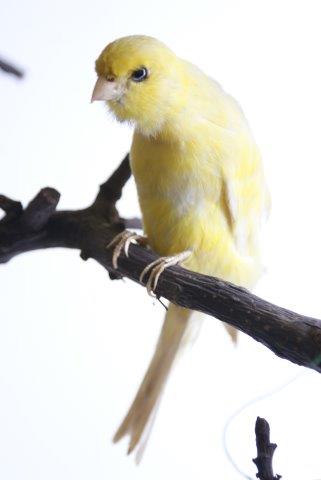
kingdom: Animalia
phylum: Chordata
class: Aves
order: Passeriformes
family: Fringillidae
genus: Serinus
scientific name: Serinus serinus
